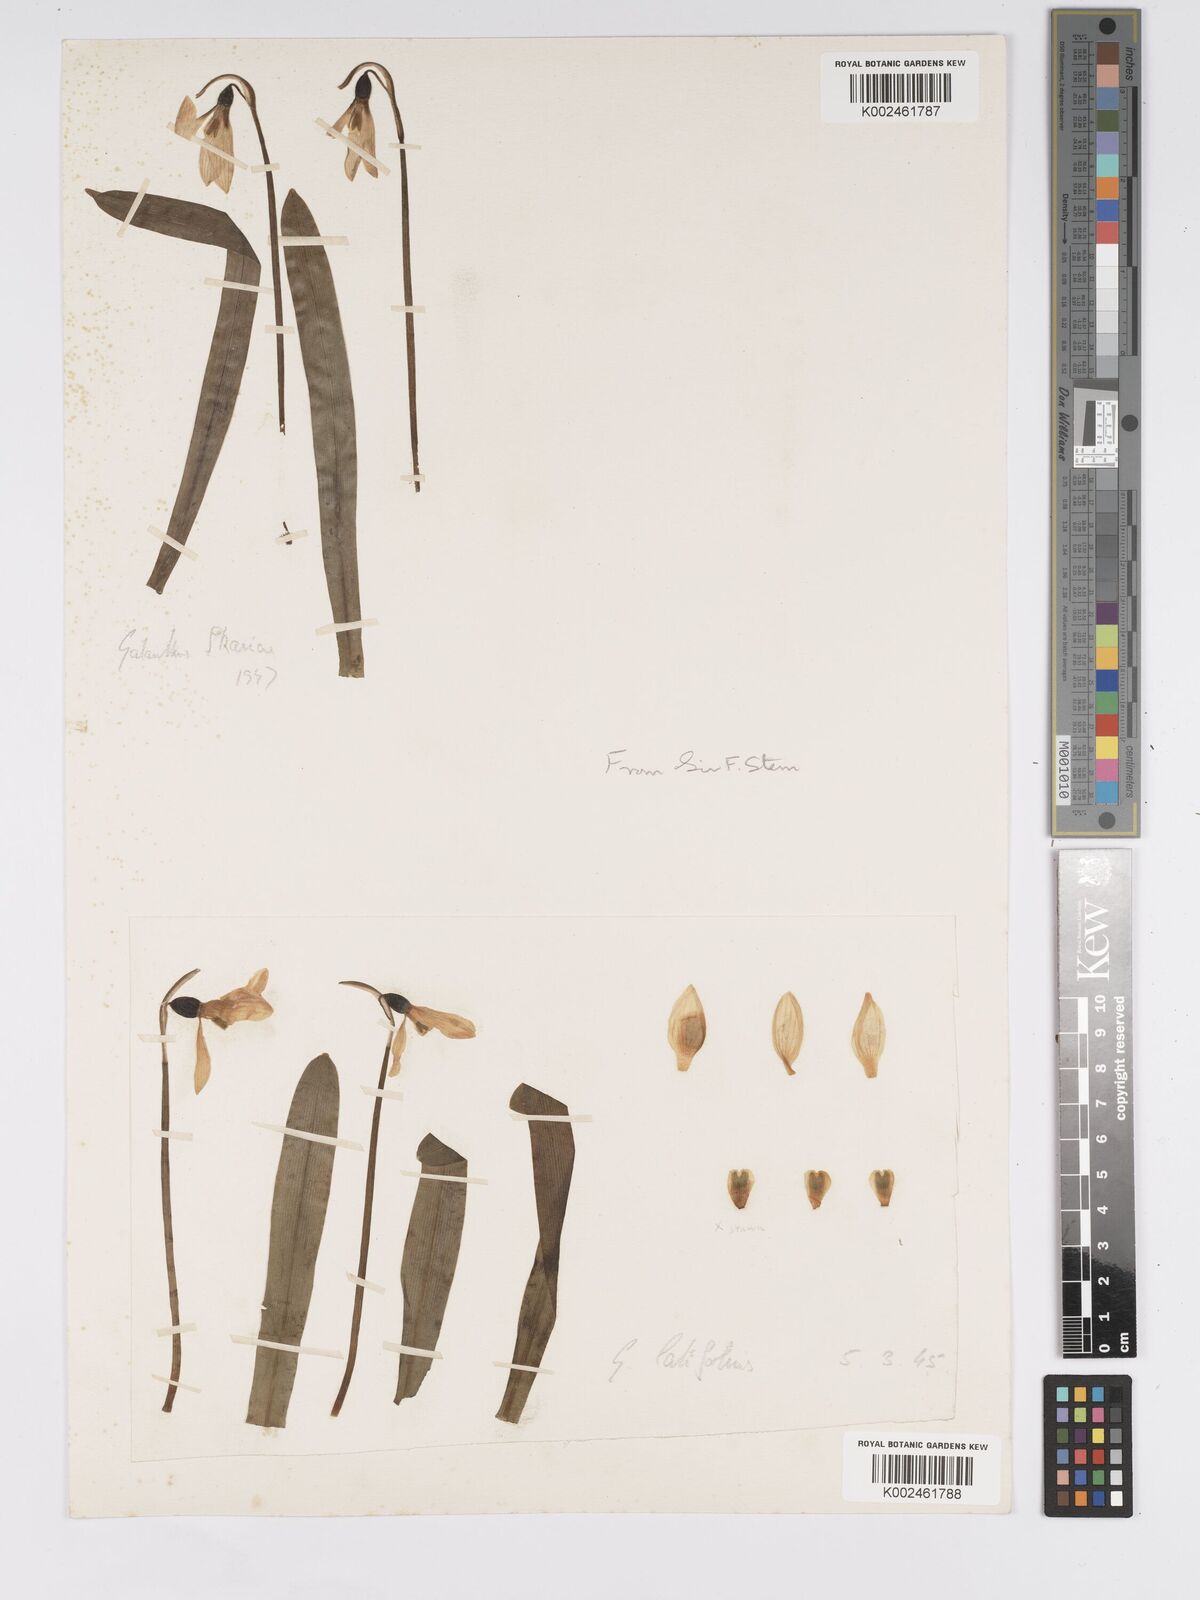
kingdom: Plantae
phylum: Tracheophyta
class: Liliopsida
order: Asparagales
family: Amaryllidaceae
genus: Galanthus
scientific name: Galanthus
